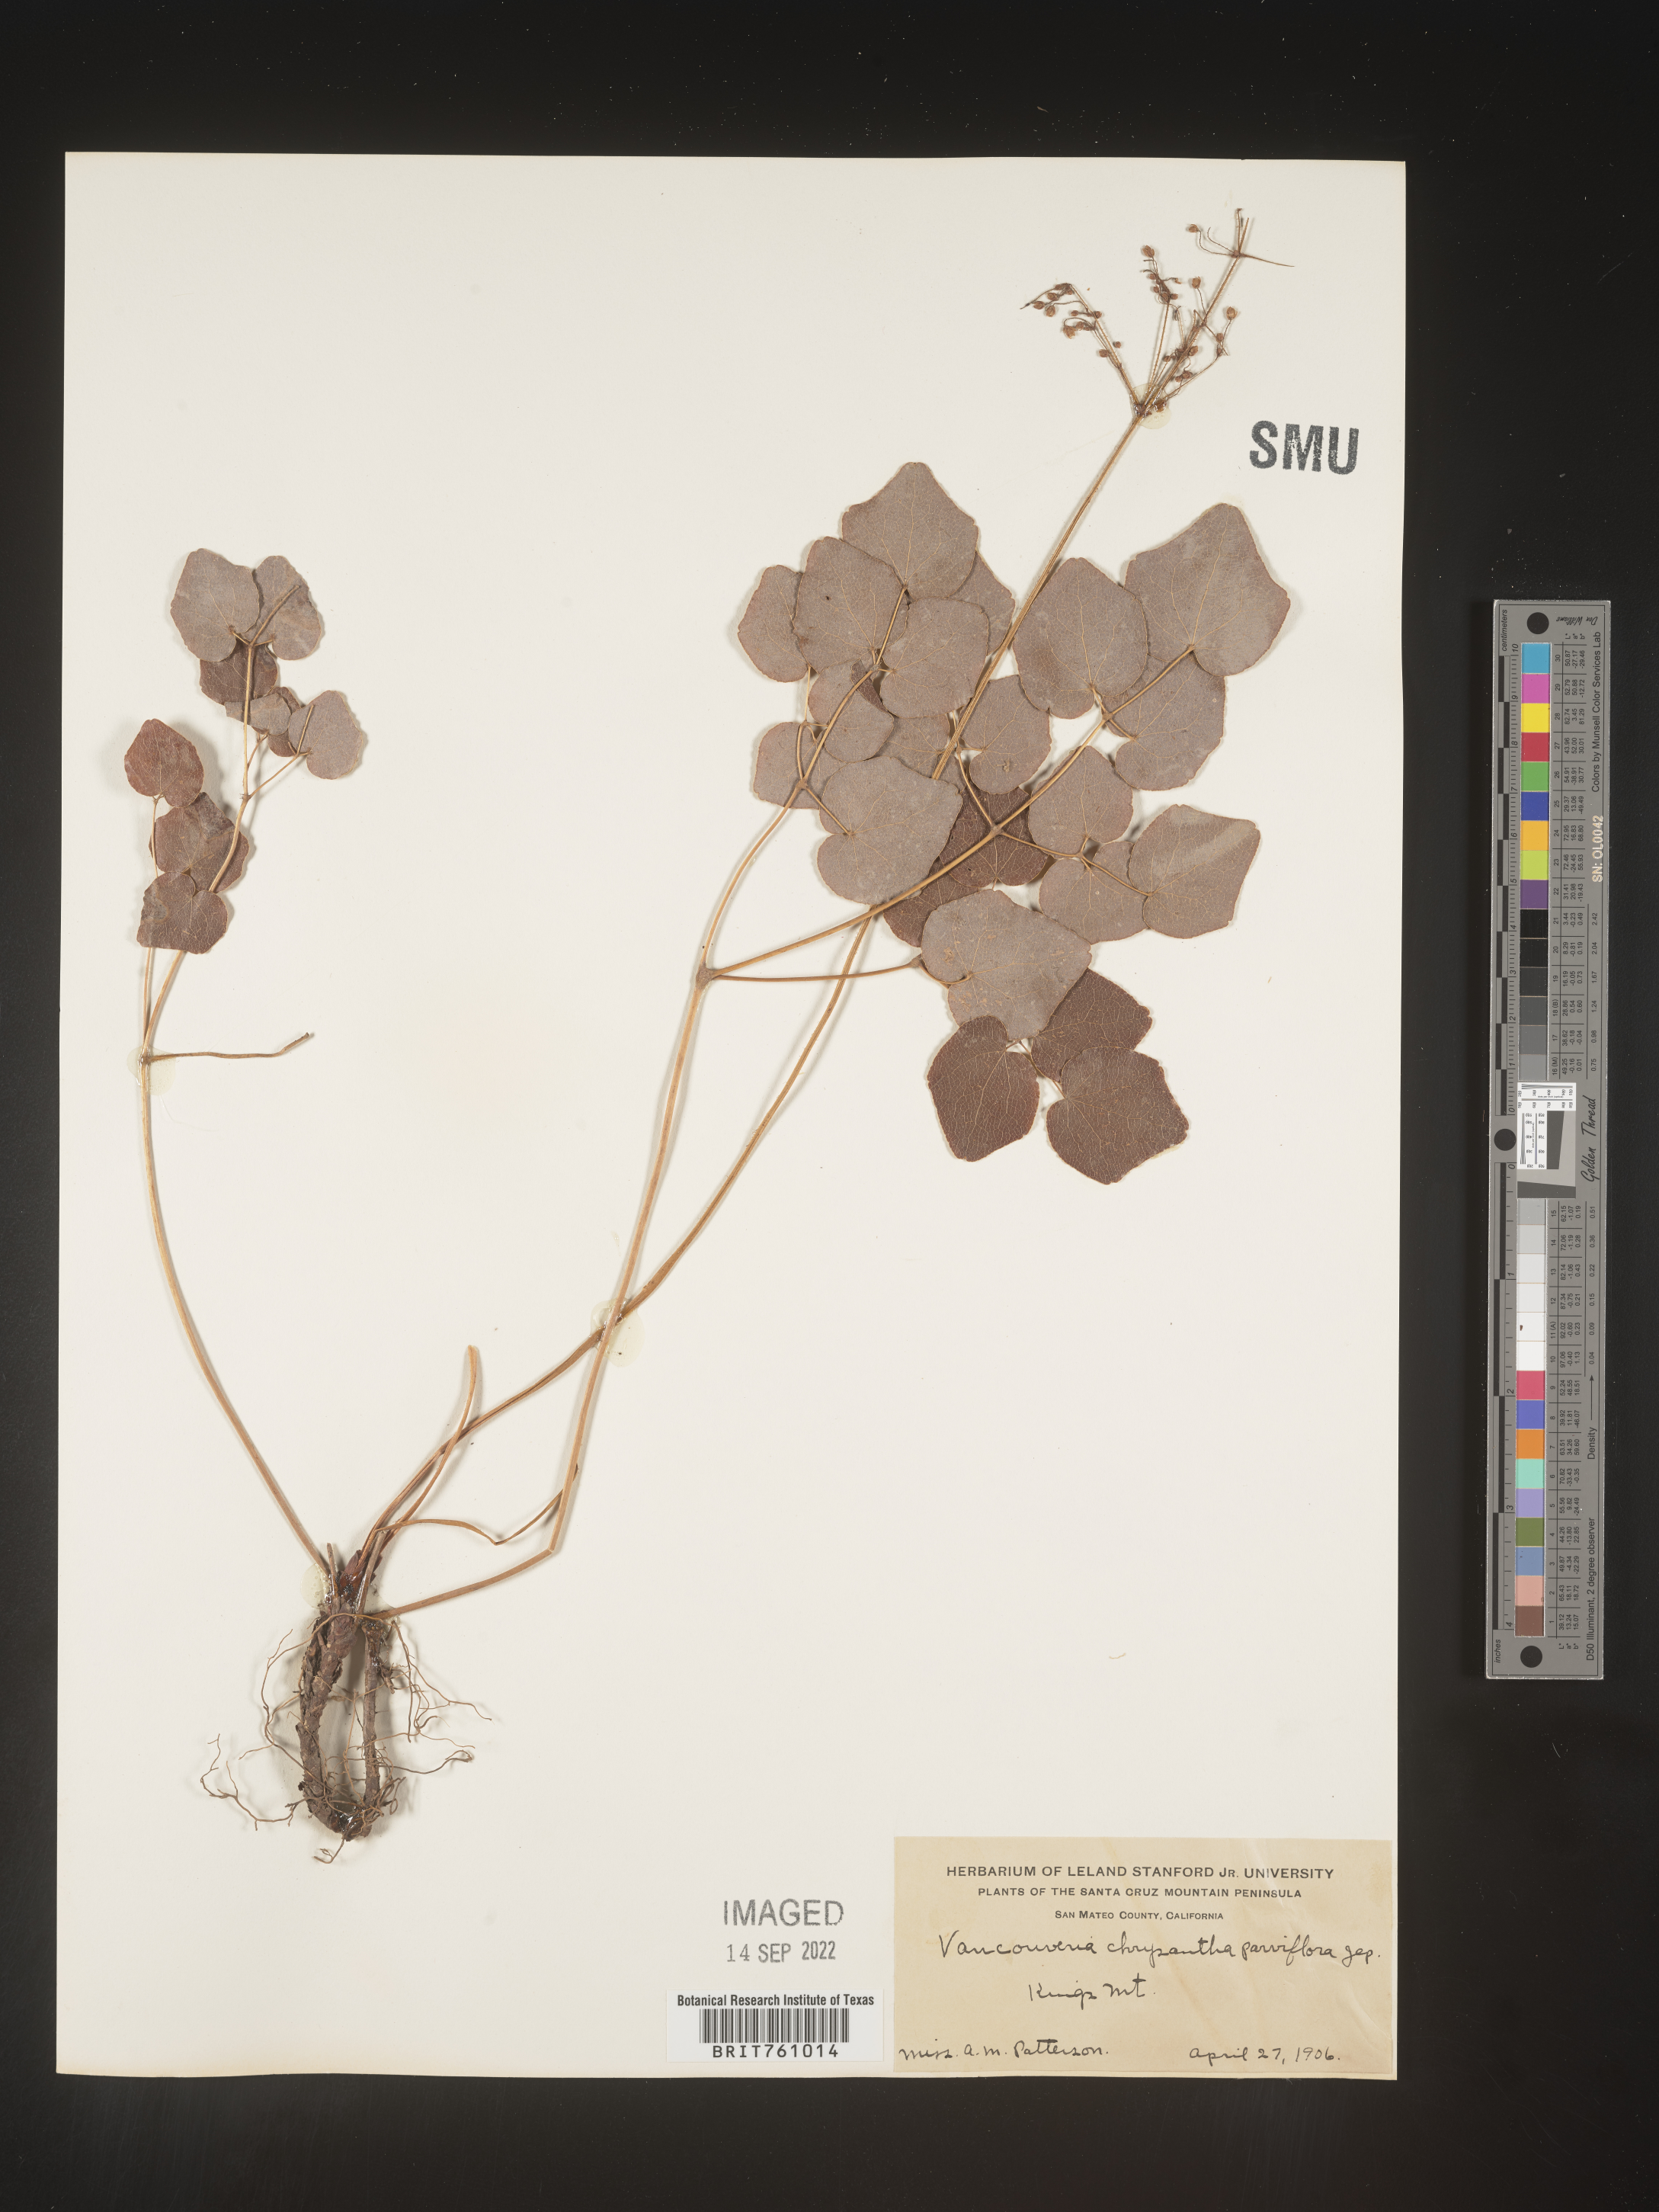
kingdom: Plantae
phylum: Tracheophyta
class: Magnoliopsida
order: Ranunculales
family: Berberidaceae
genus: Vancouveria
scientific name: Vancouveria
